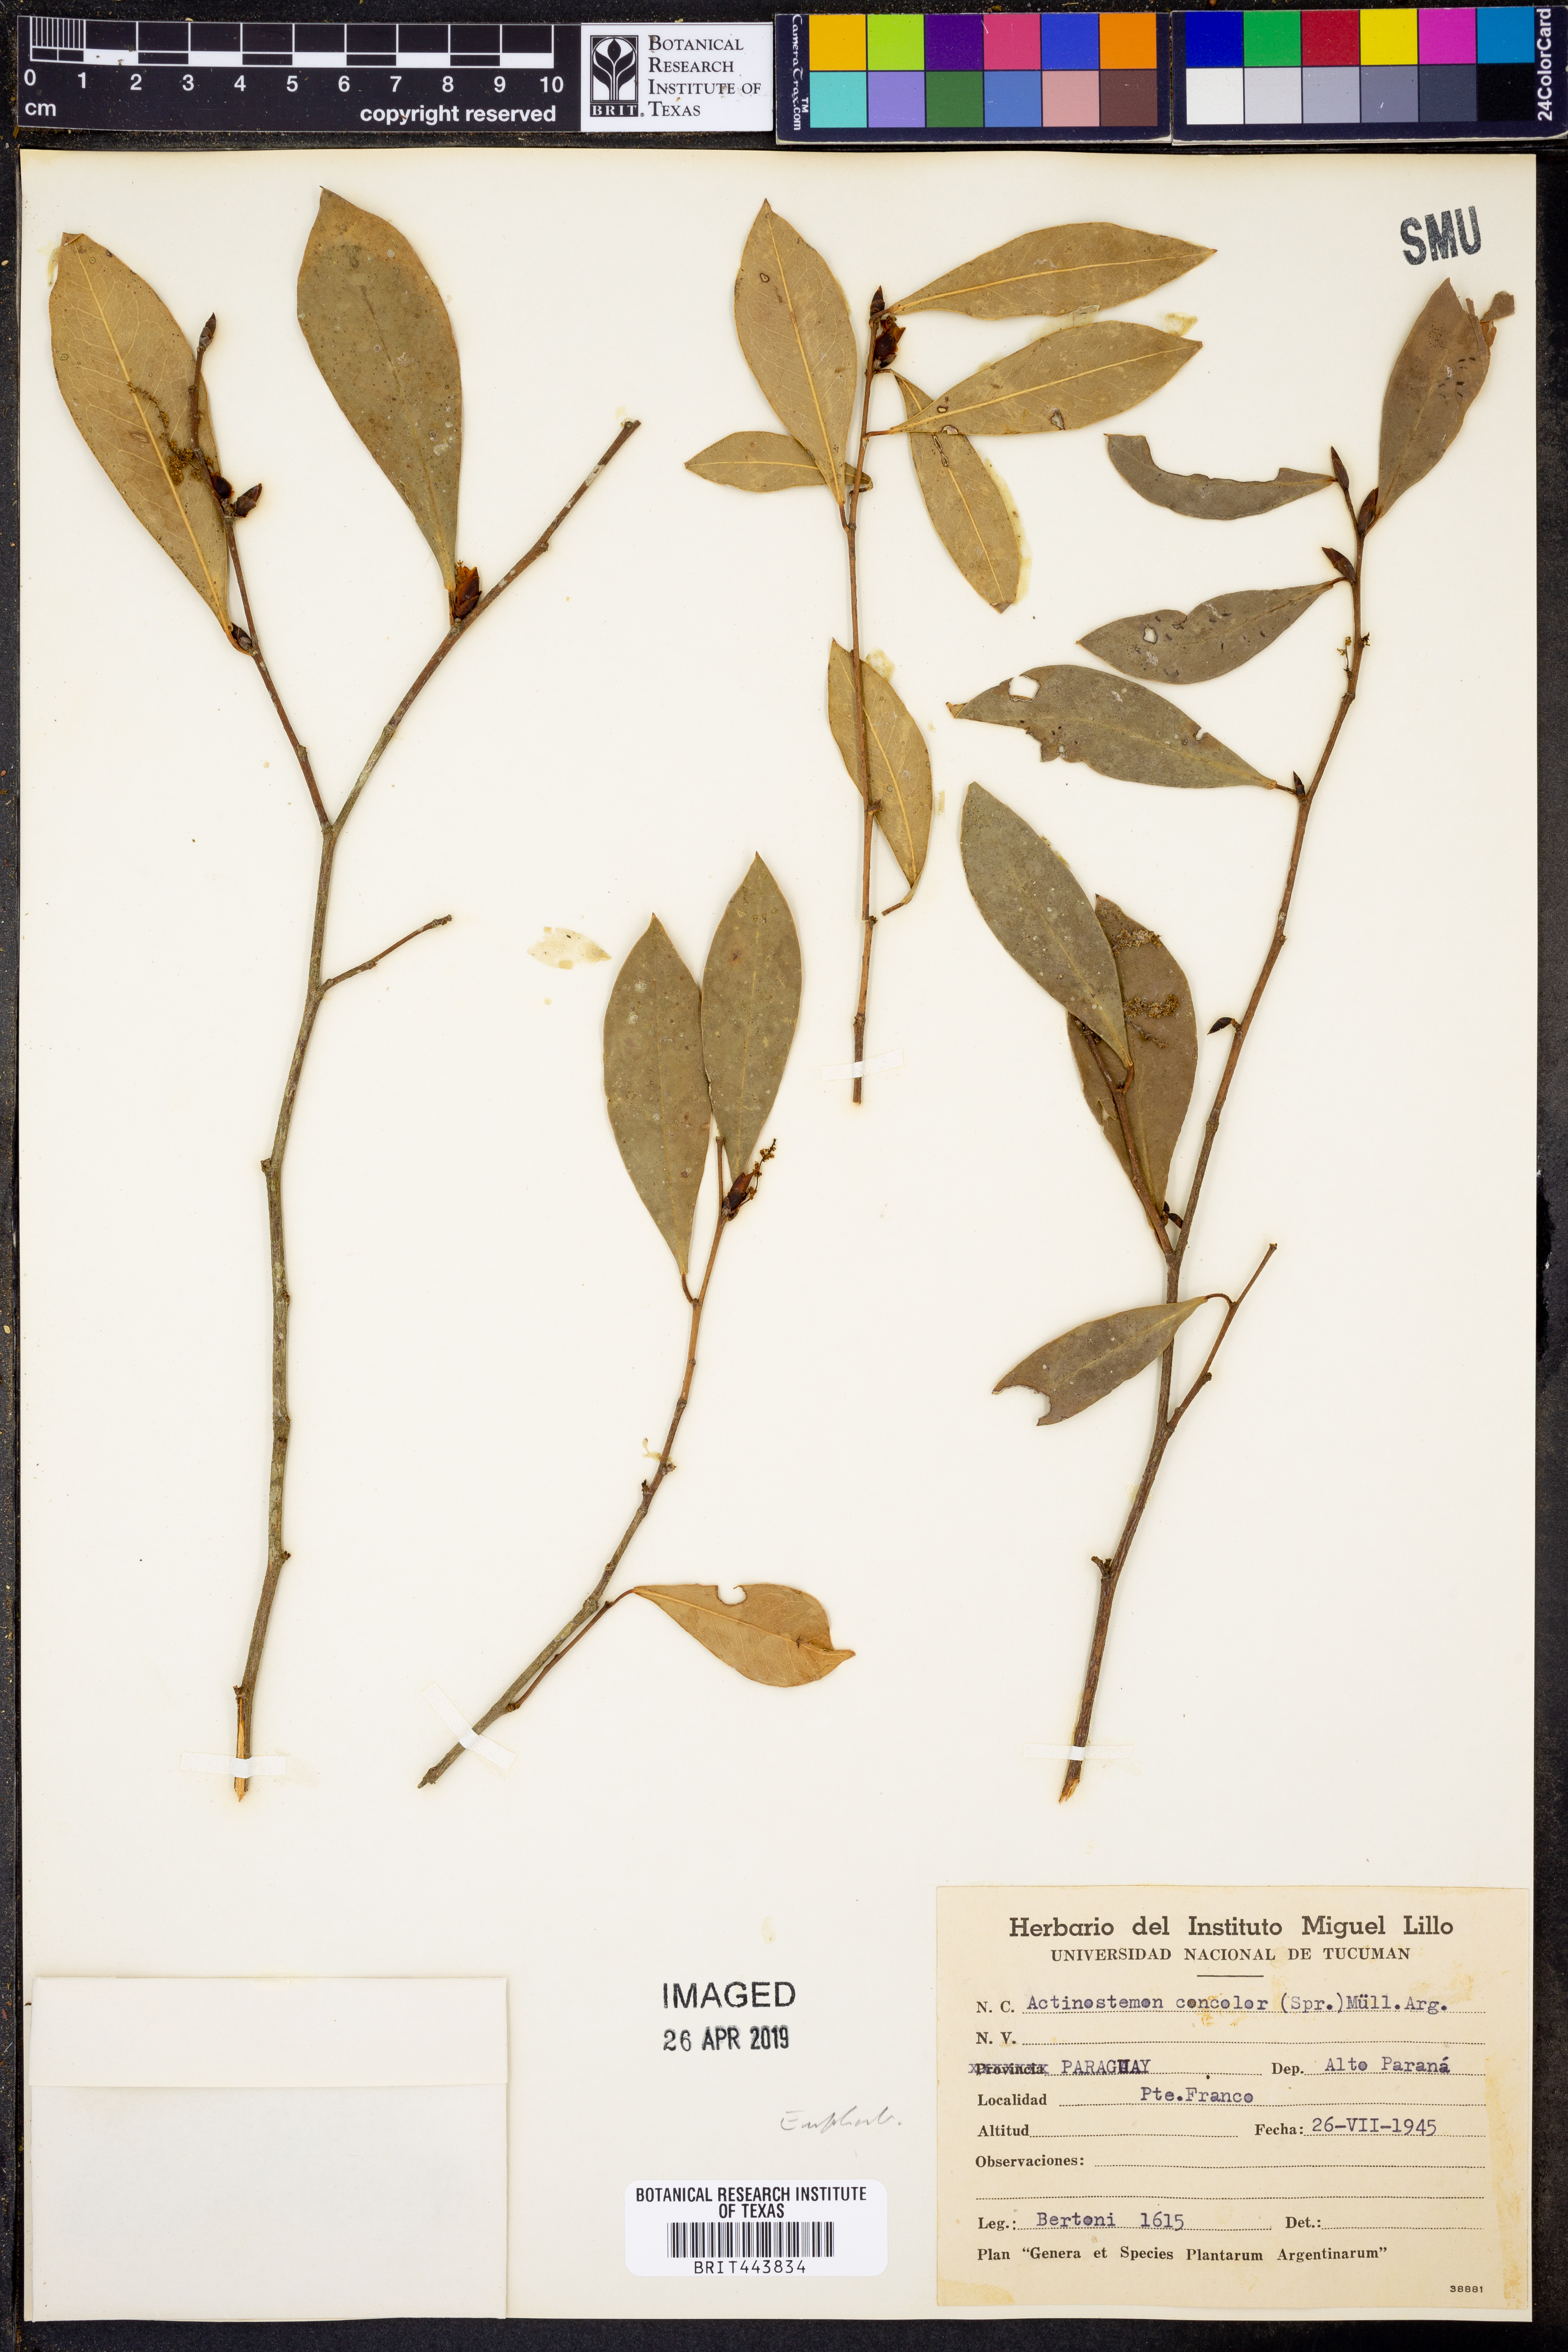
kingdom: Plantae
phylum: Tracheophyta
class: Magnoliopsida
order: Malpighiales
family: Euphorbiaceae
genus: Actinostemon
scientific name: Actinostemon concolor
